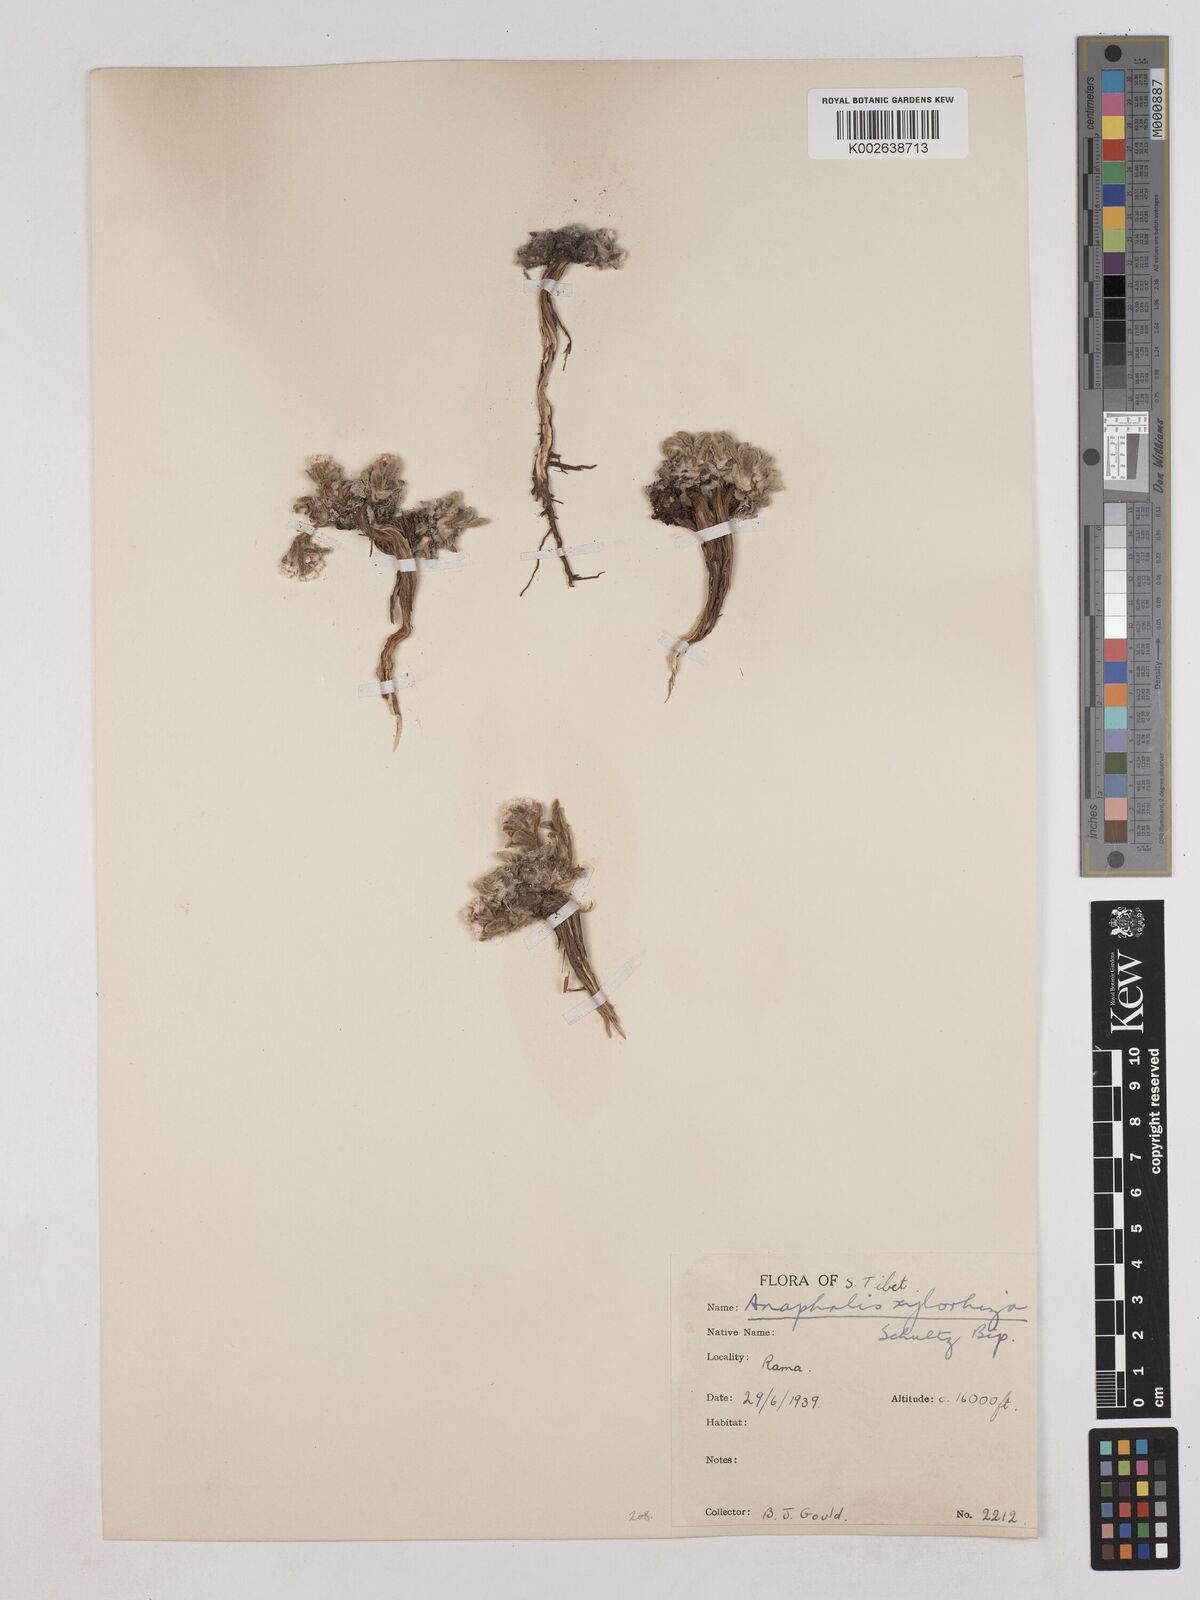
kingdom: Plantae
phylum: Tracheophyta
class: Magnoliopsida
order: Asterales
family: Asteraceae
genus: Anaphalis
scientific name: Anaphalis xylorhiza
